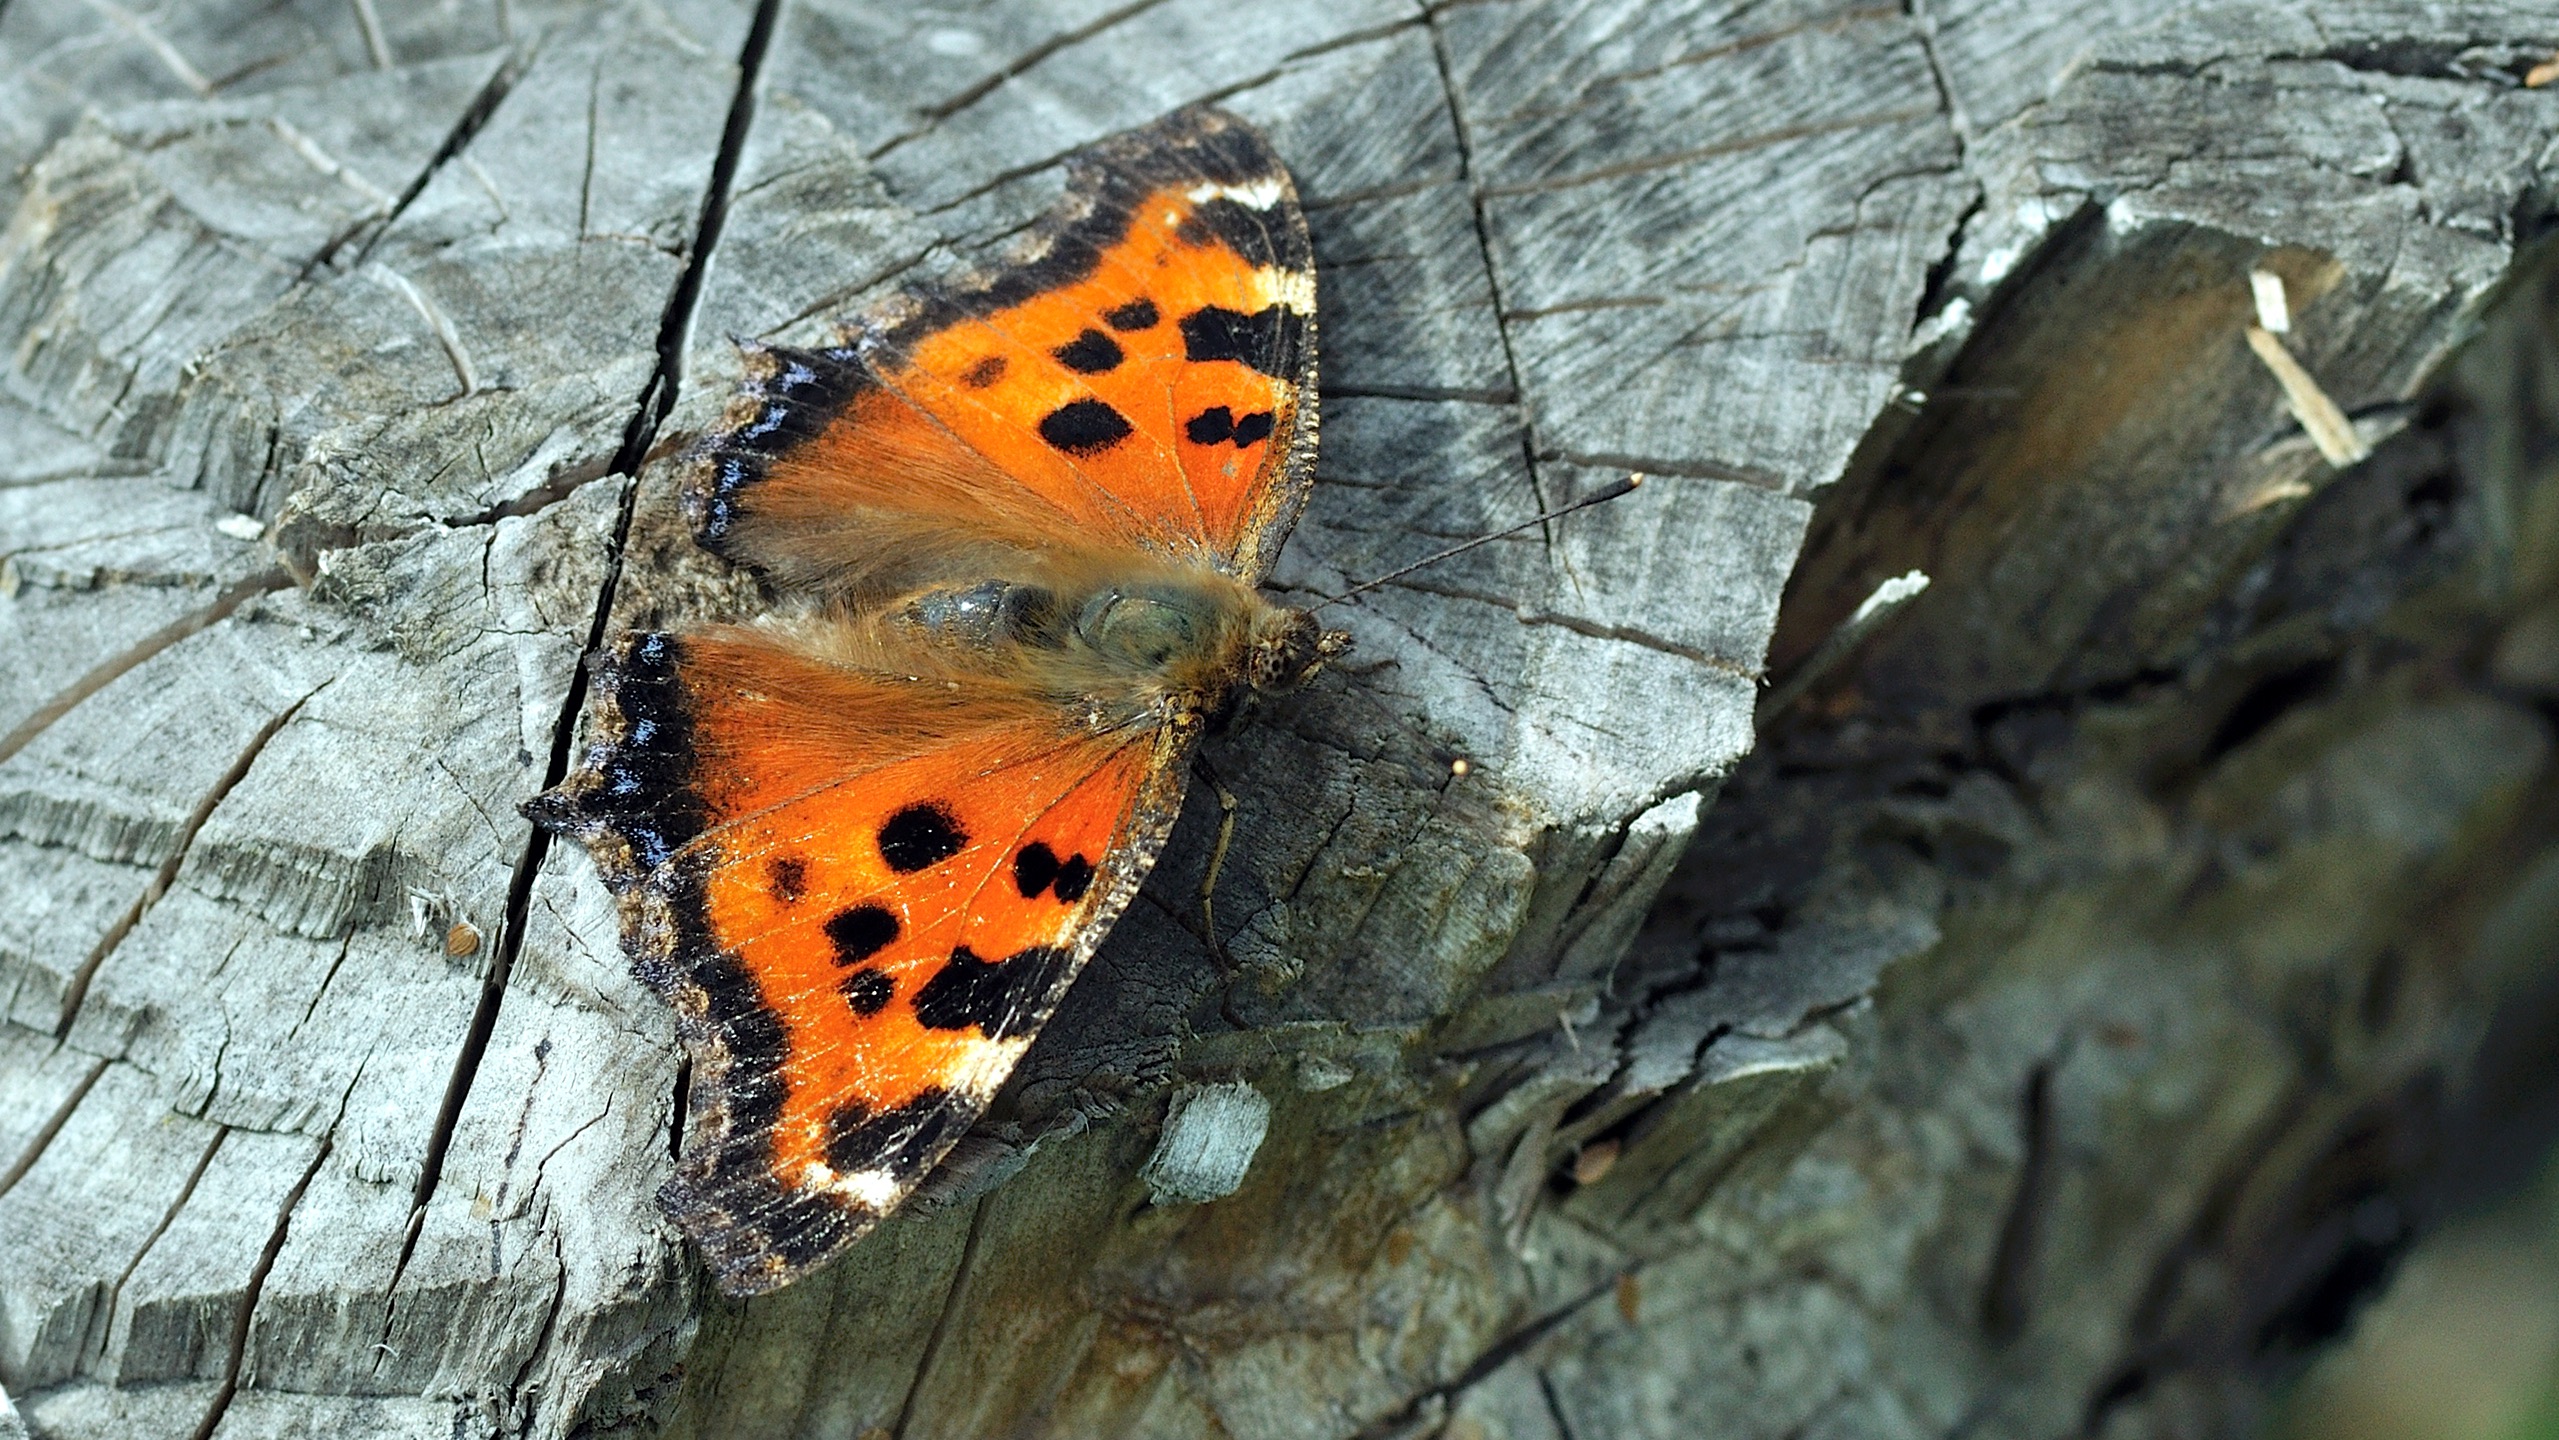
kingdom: Animalia
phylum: Arthropoda
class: Insecta
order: Lepidoptera
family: Nymphalidae
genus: Nymphalis
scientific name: Nymphalis xanthomelas
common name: Østlig takvinge
